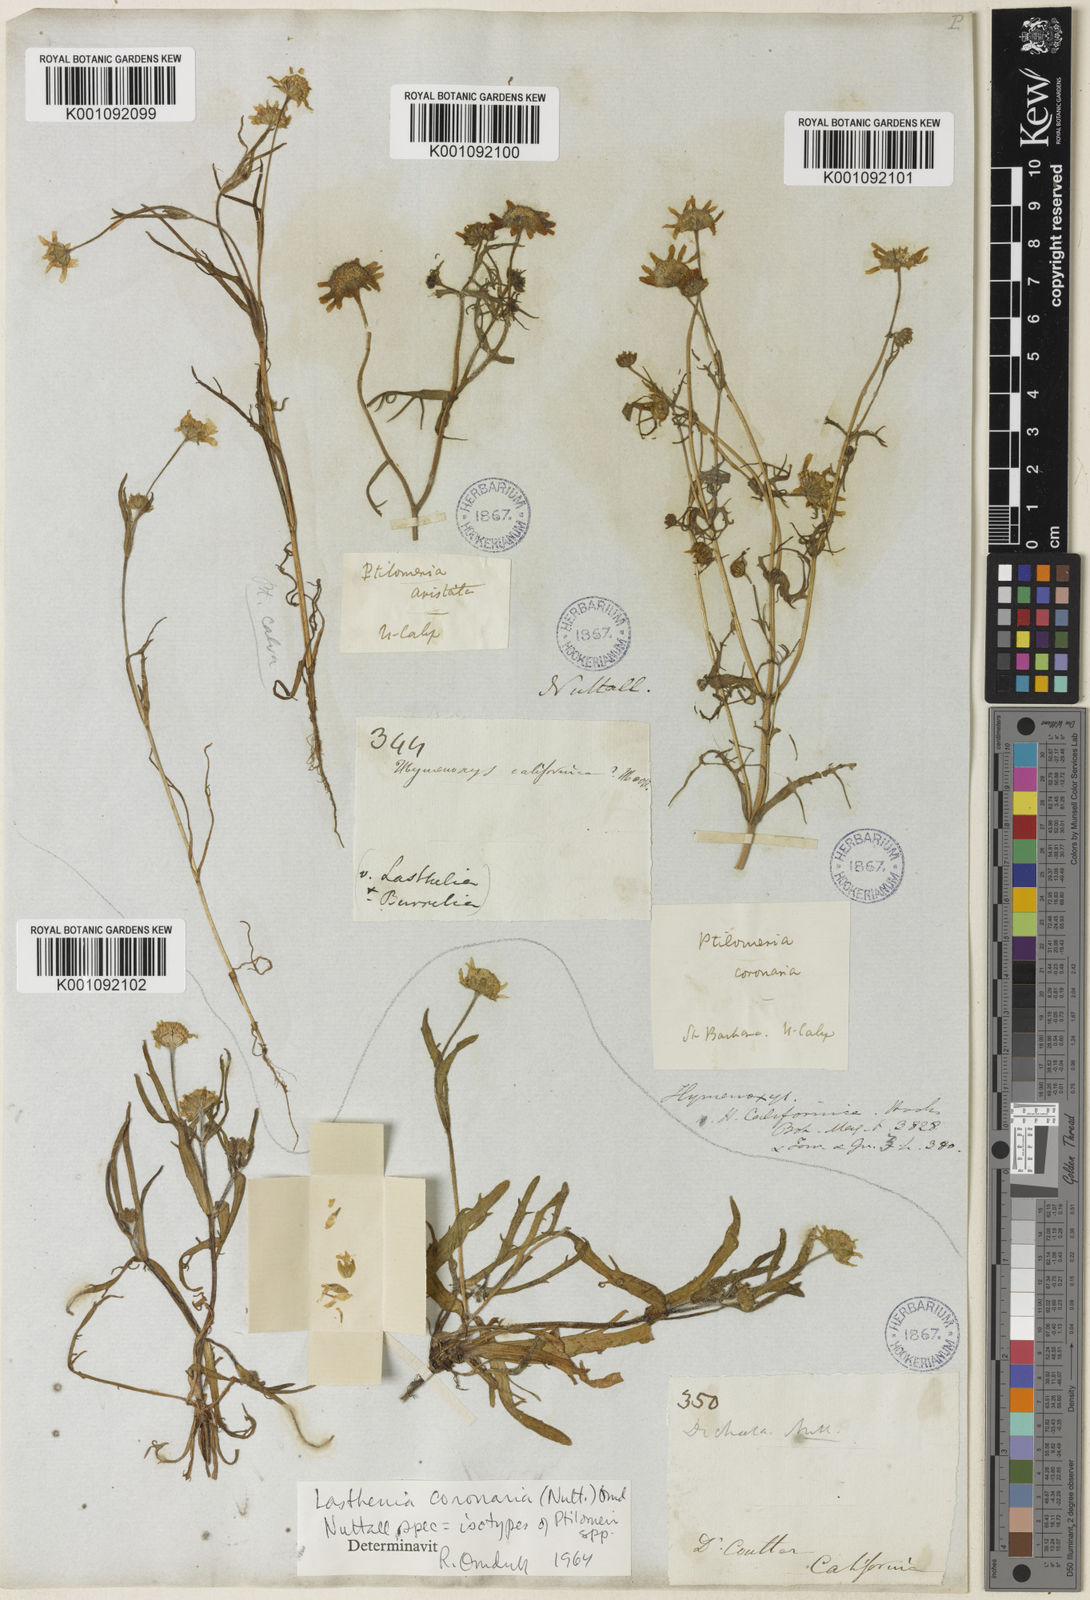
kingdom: Plantae
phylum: Tracheophyta
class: Magnoliopsida
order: Asterales
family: Asteraceae
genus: Lasthenia
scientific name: Lasthenia coronaria
